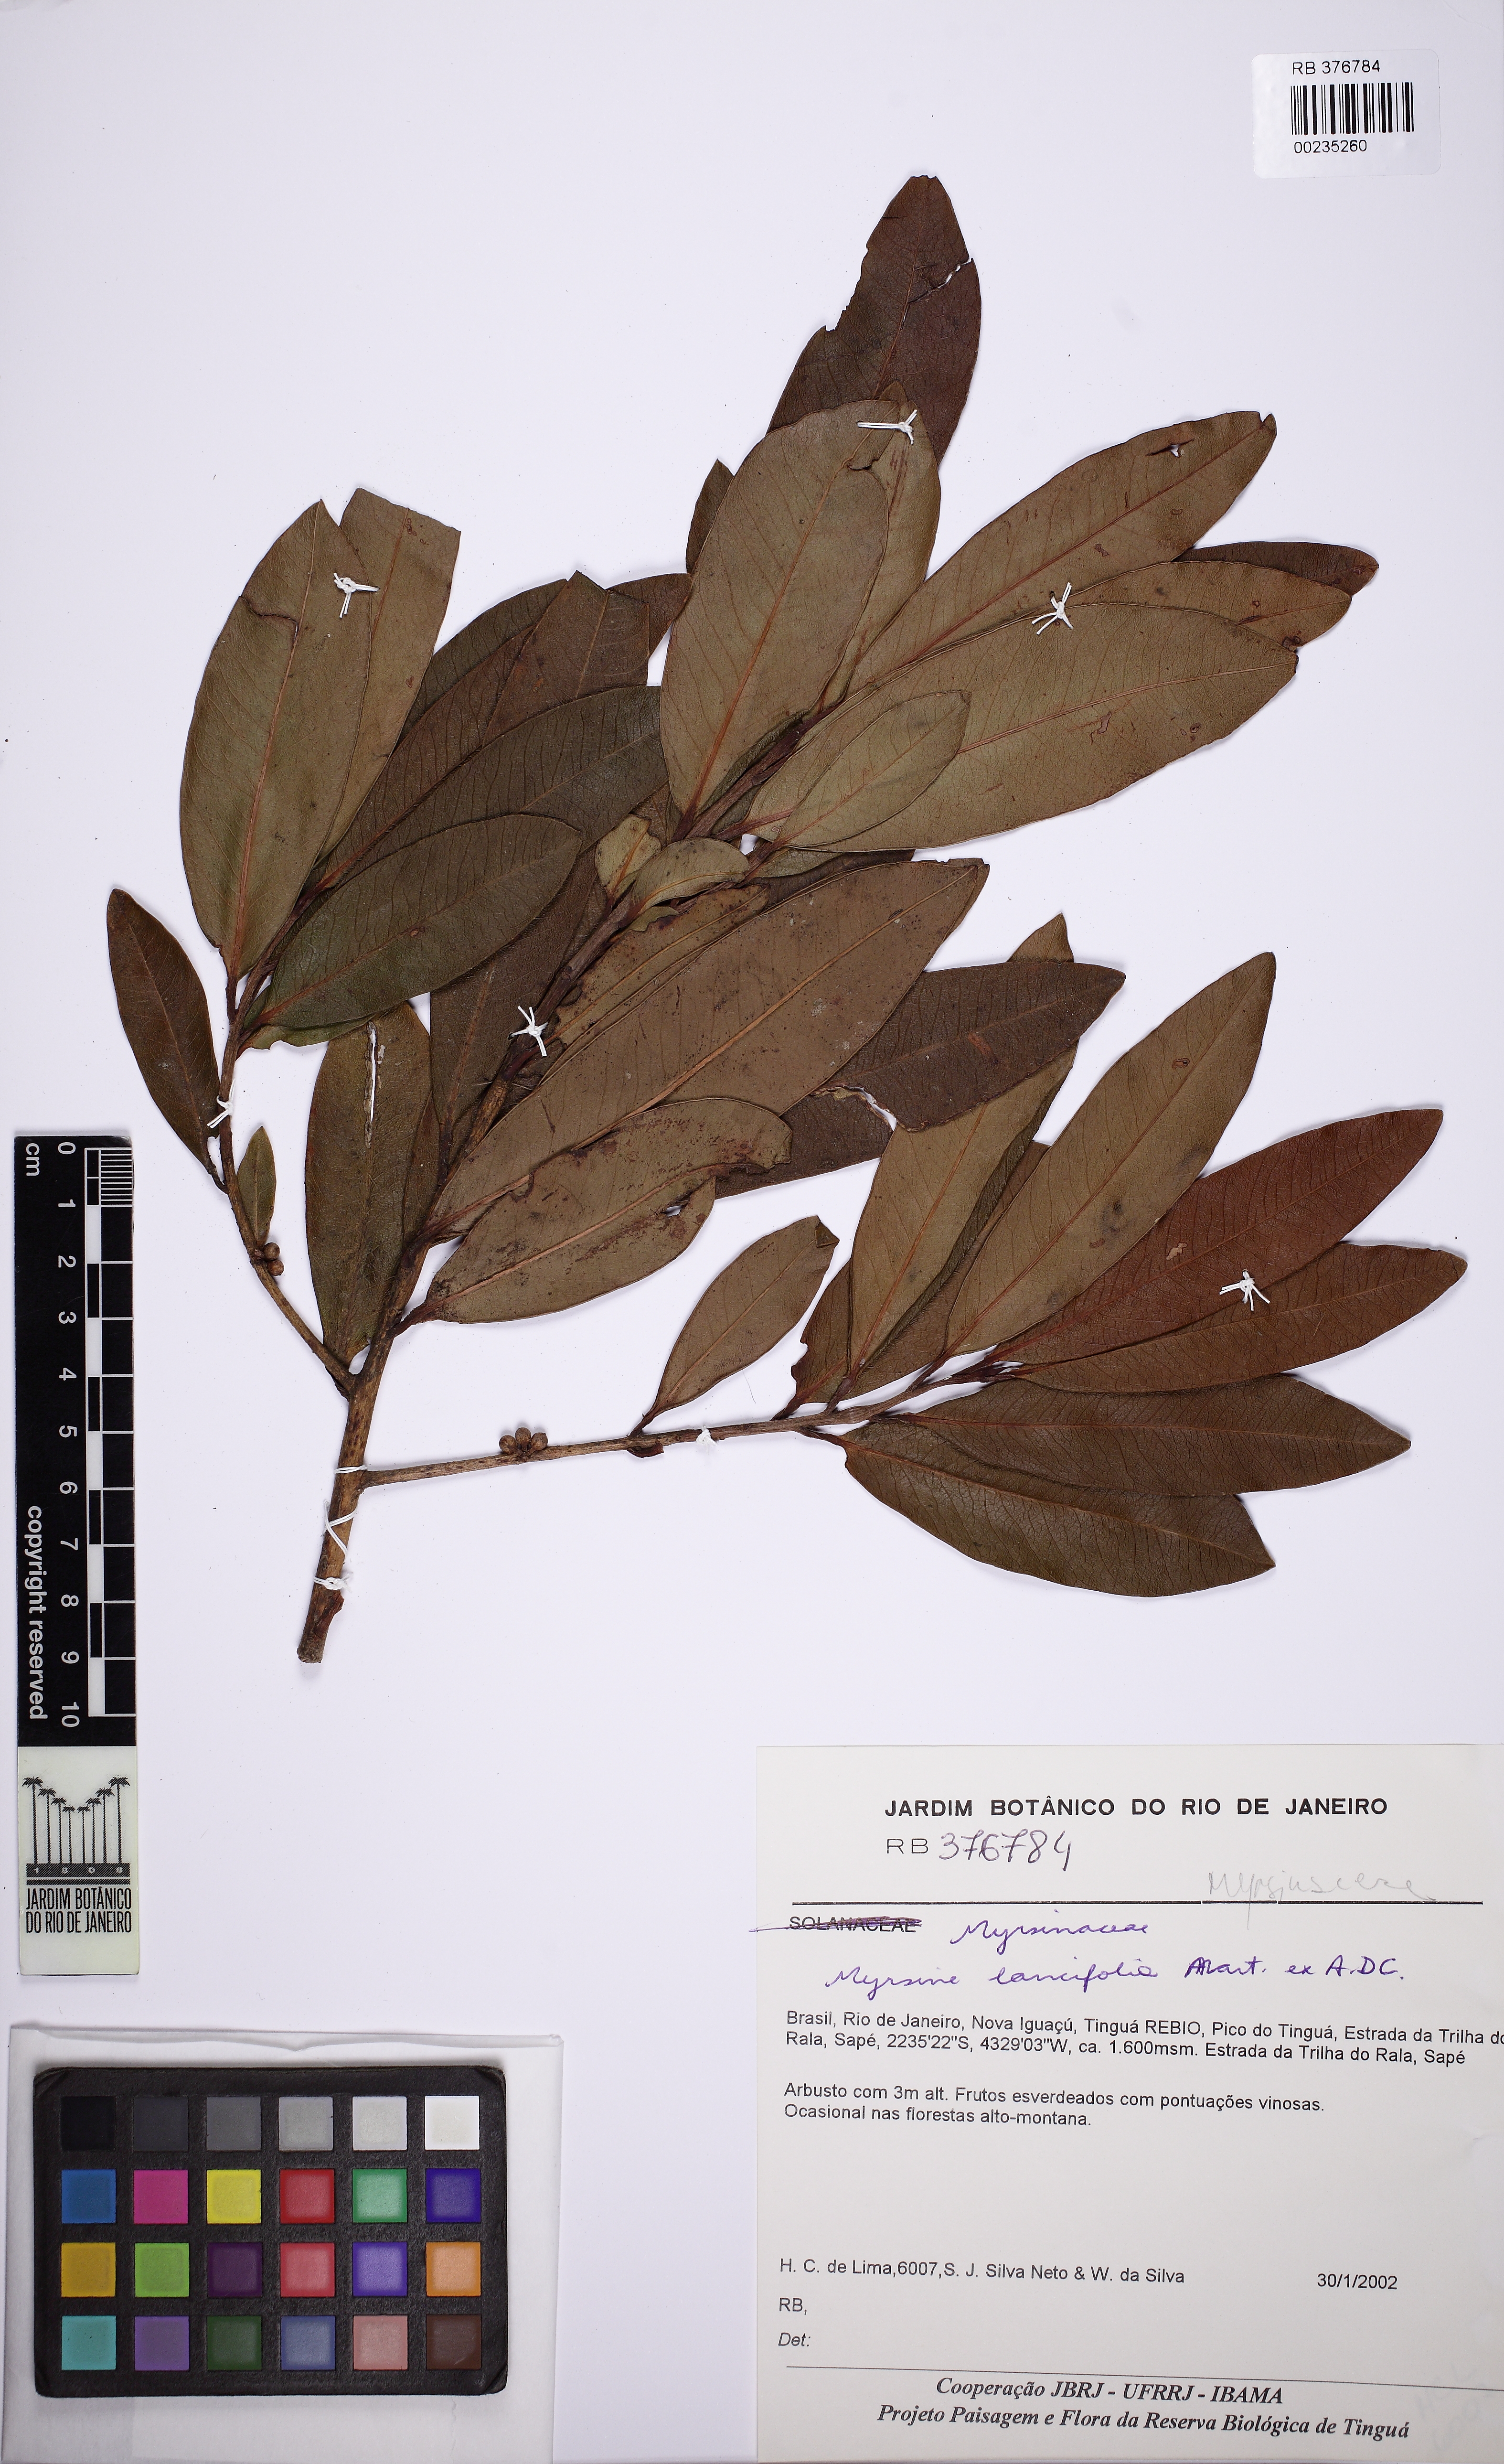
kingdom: Plantae
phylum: Tracheophyta
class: Magnoliopsida
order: Ericales
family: Primulaceae
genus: Myrsine
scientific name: Myrsine lancifolia
